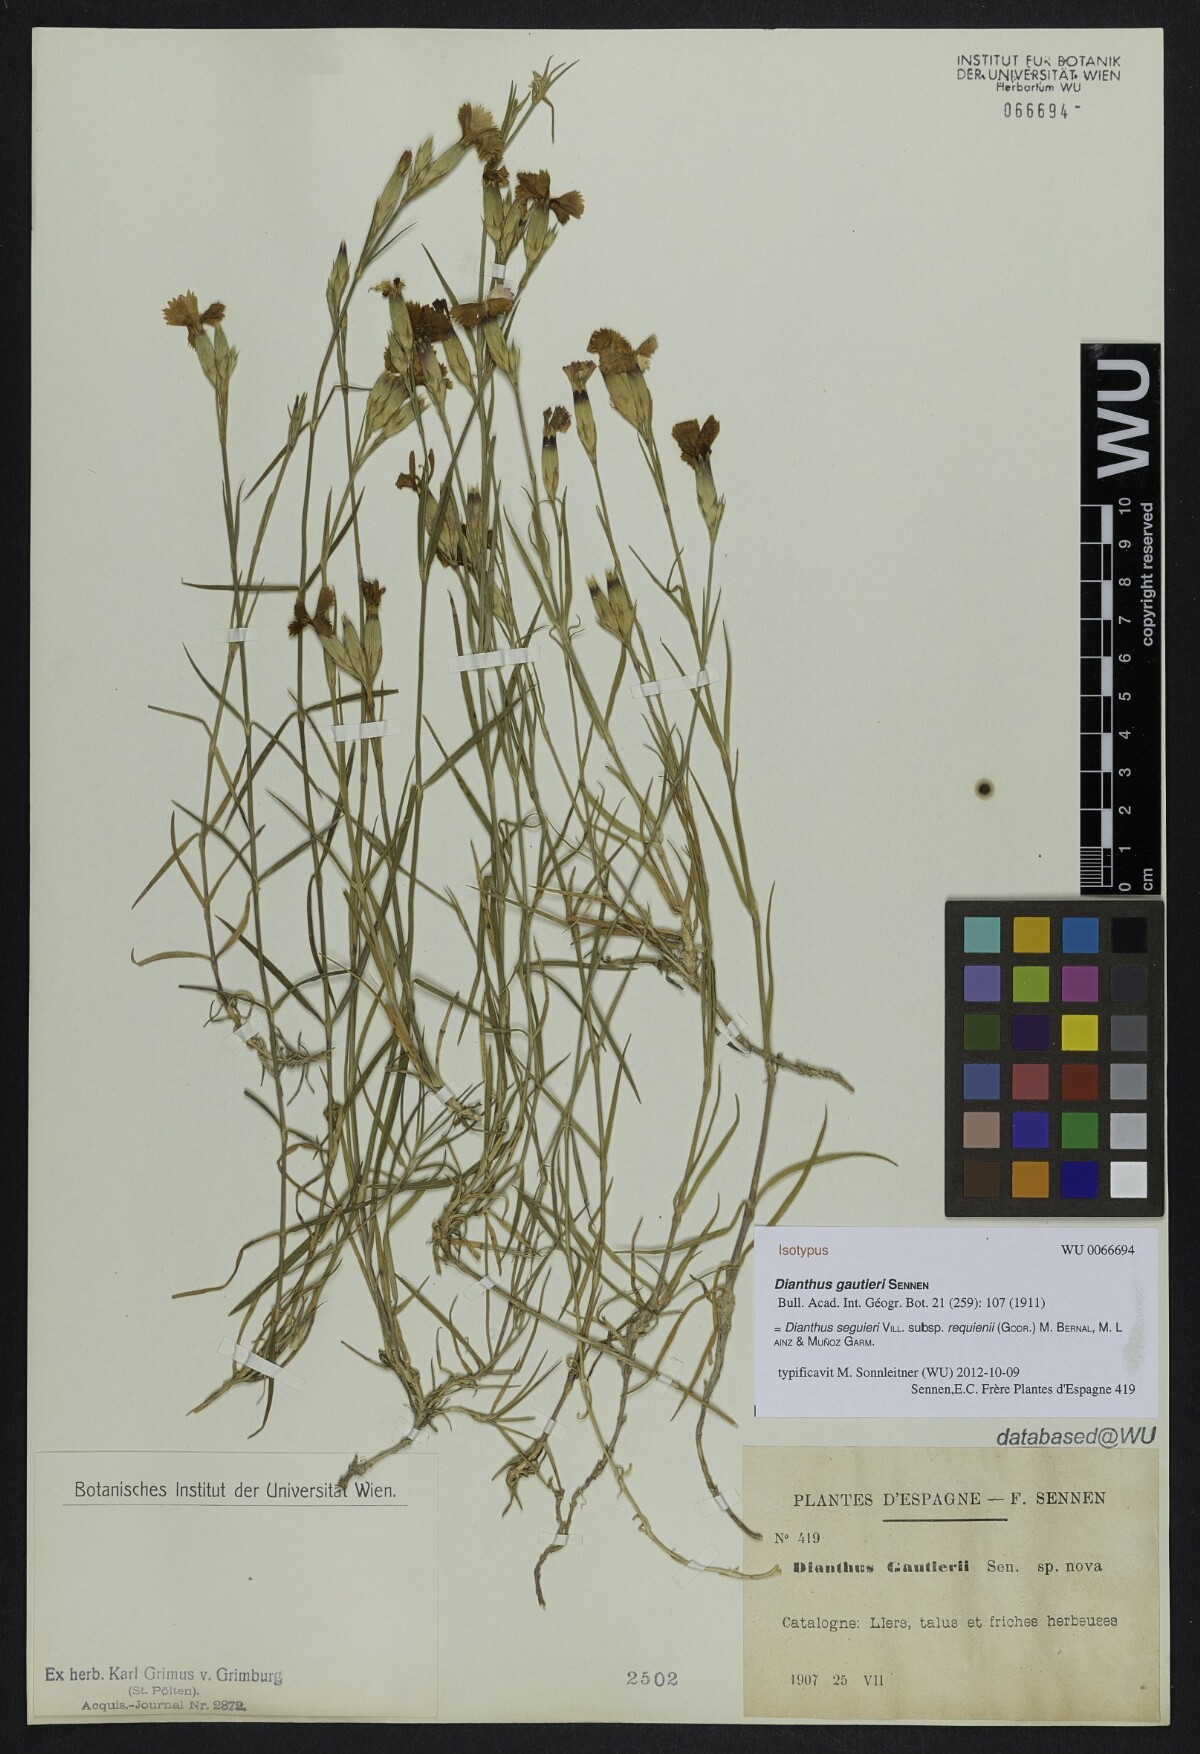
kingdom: Plantae
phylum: Tracheophyta
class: Magnoliopsida
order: Caryophyllales
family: Caryophyllaceae
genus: Dianthus
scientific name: Dianthus seguieri
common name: Ragged pink
